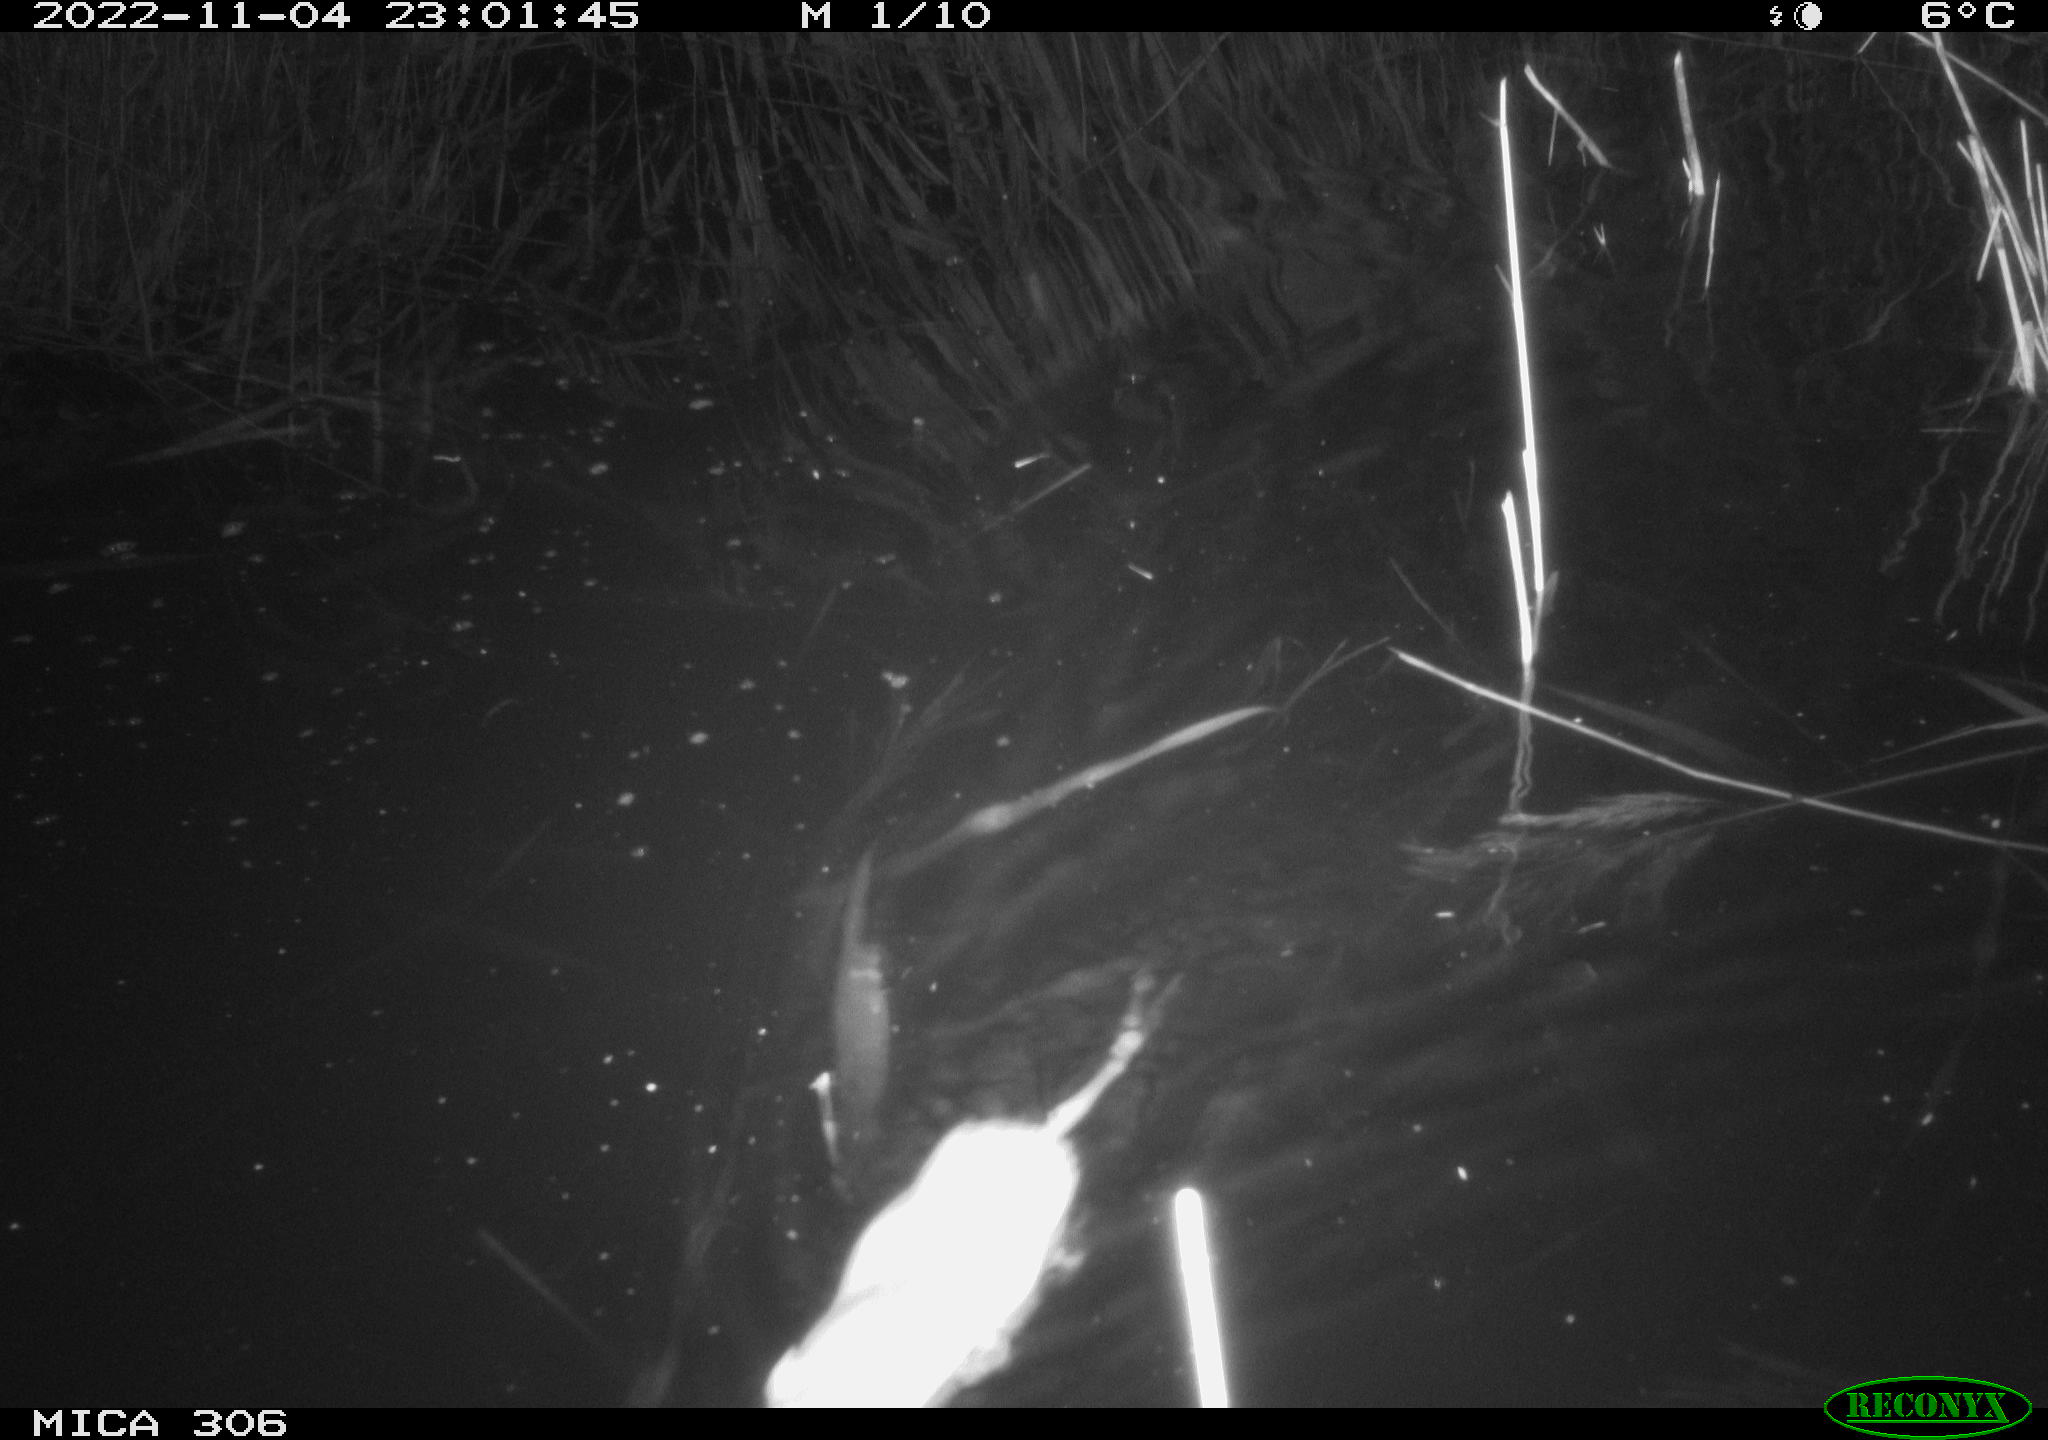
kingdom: Animalia
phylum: Chordata
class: Mammalia
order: Rodentia
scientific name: Rodentia
